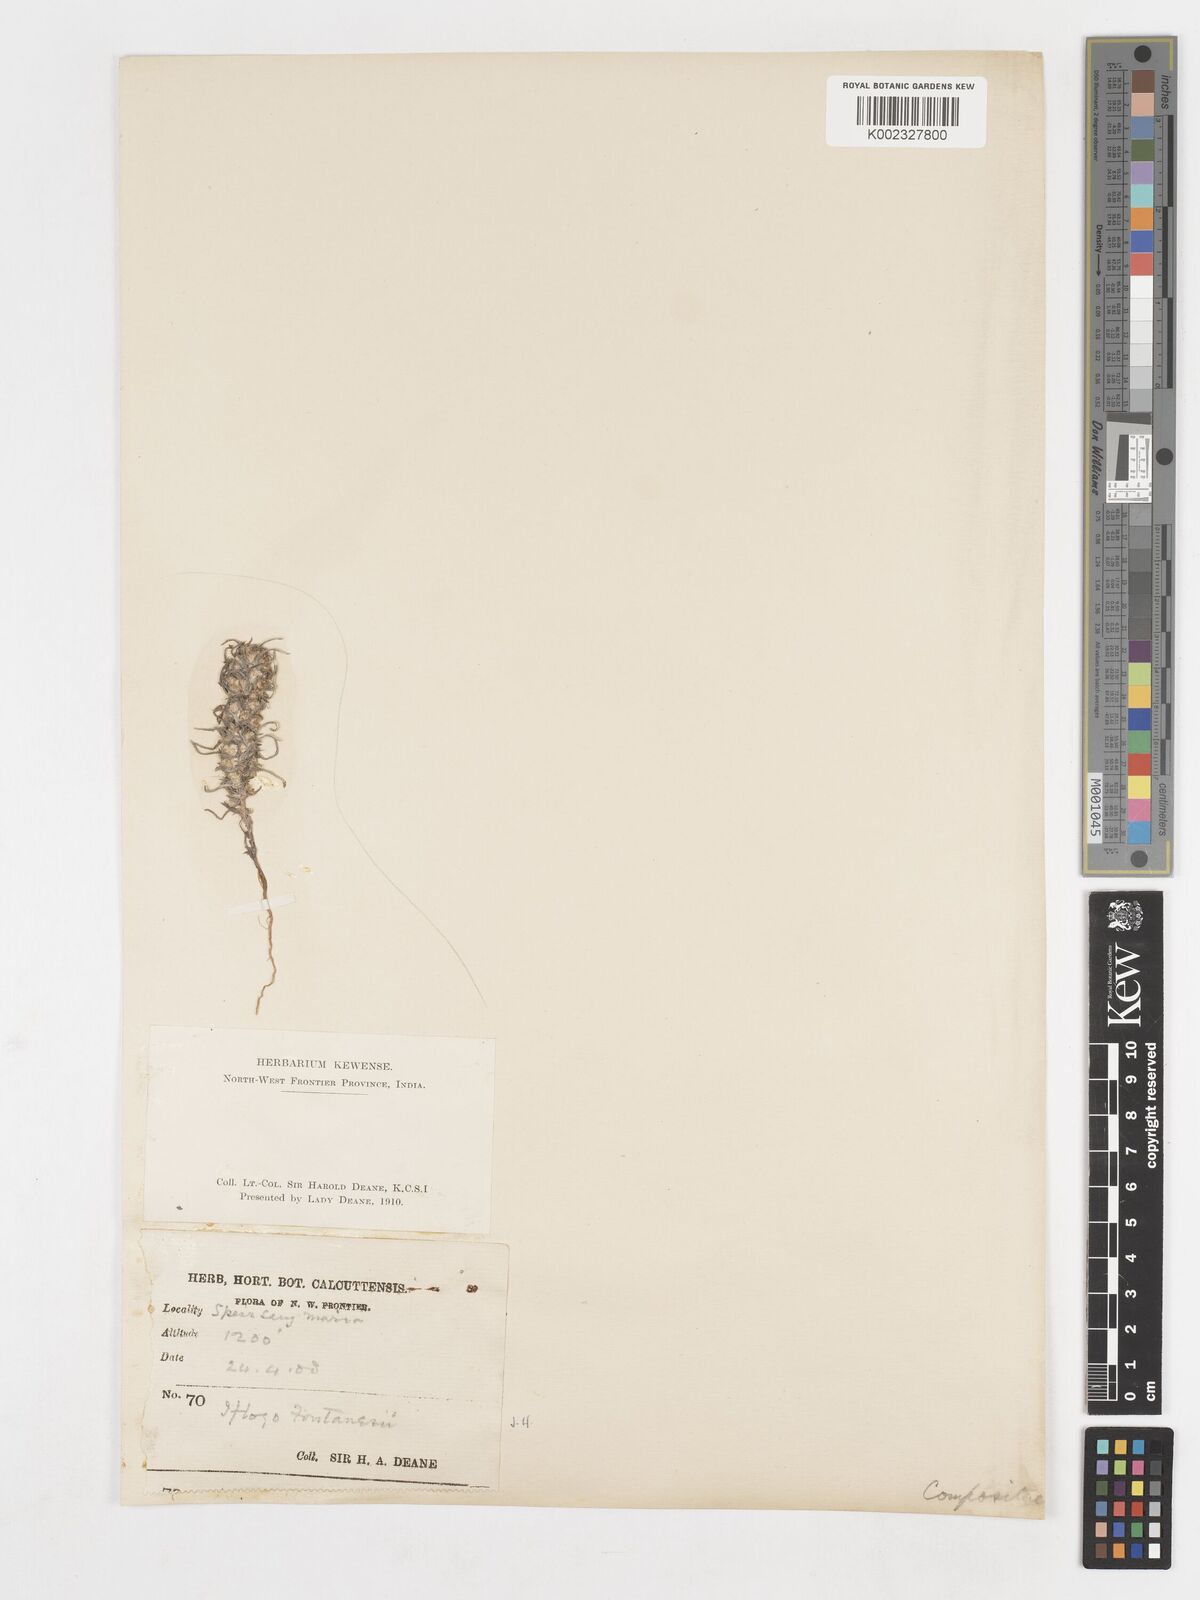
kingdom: Plantae
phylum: Tracheophyta
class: Magnoliopsida
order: Asterales
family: Asteraceae
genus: Ifloga
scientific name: Ifloga spicata
